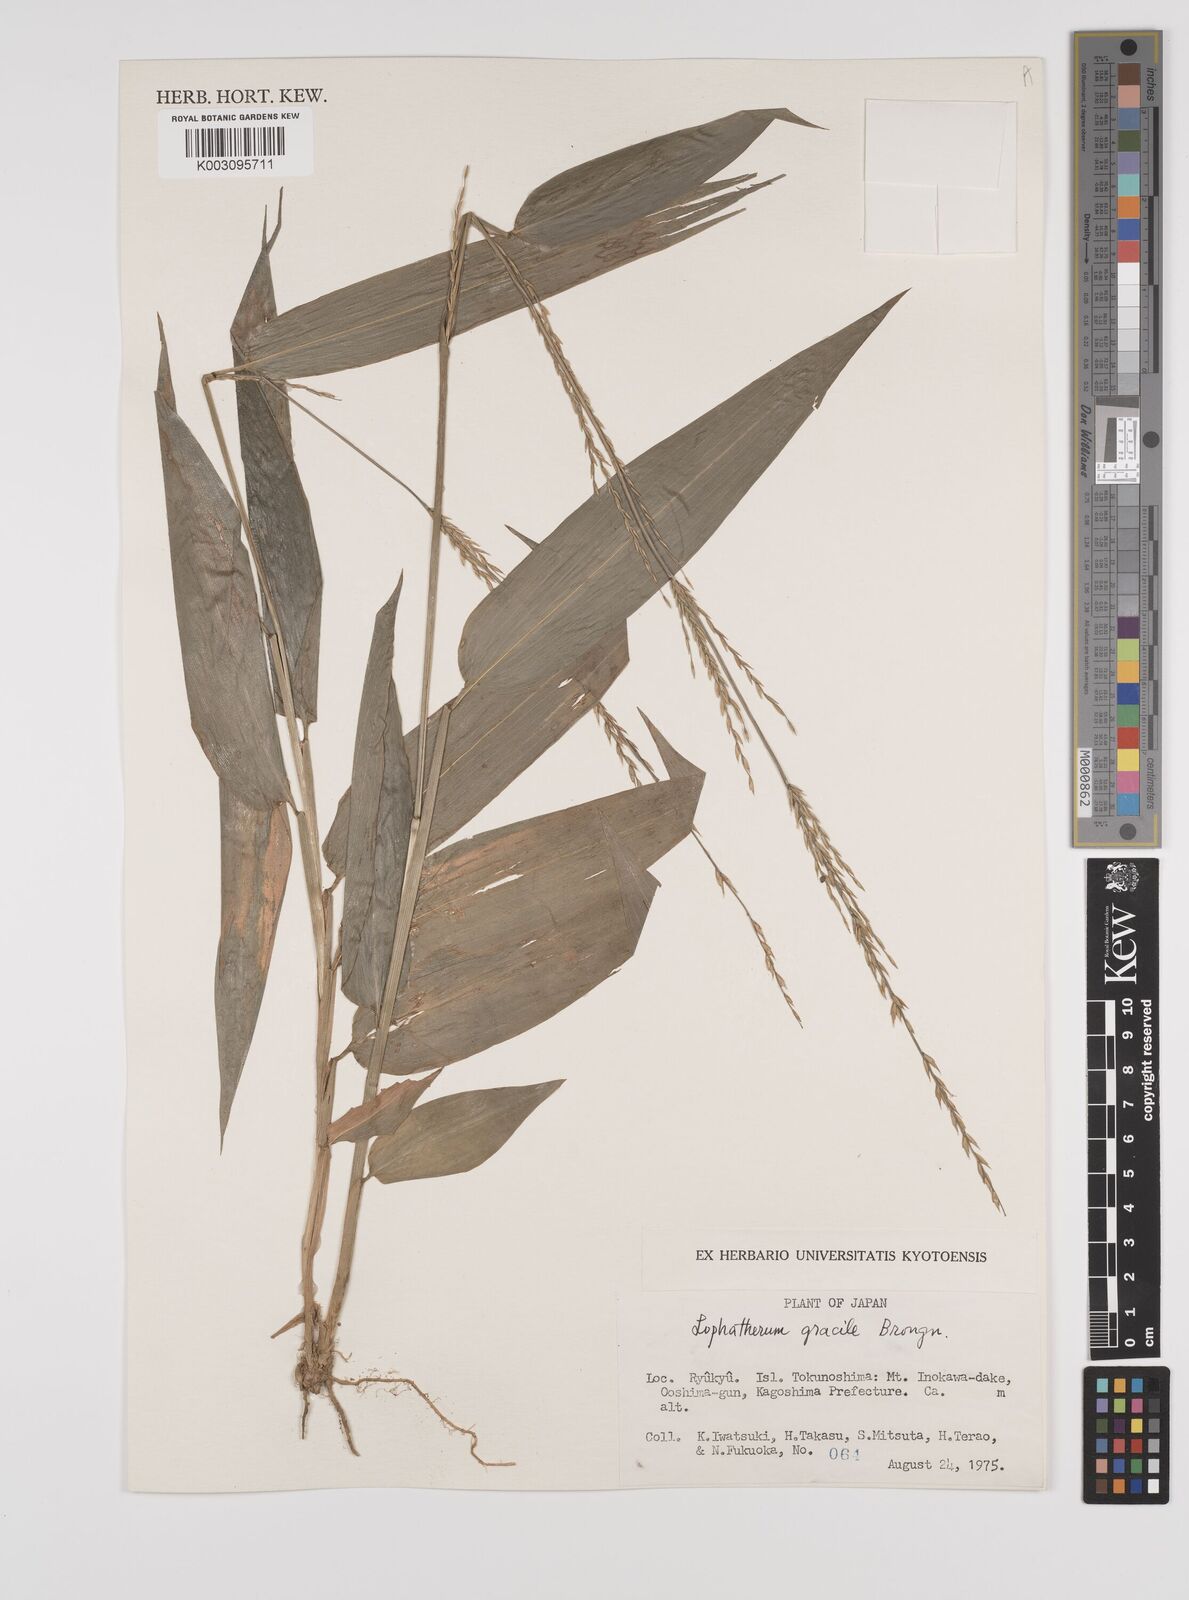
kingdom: Plantae
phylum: Tracheophyta
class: Liliopsida
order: Poales
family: Poaceae
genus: Lophatherum
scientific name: Lophatherum gracile
